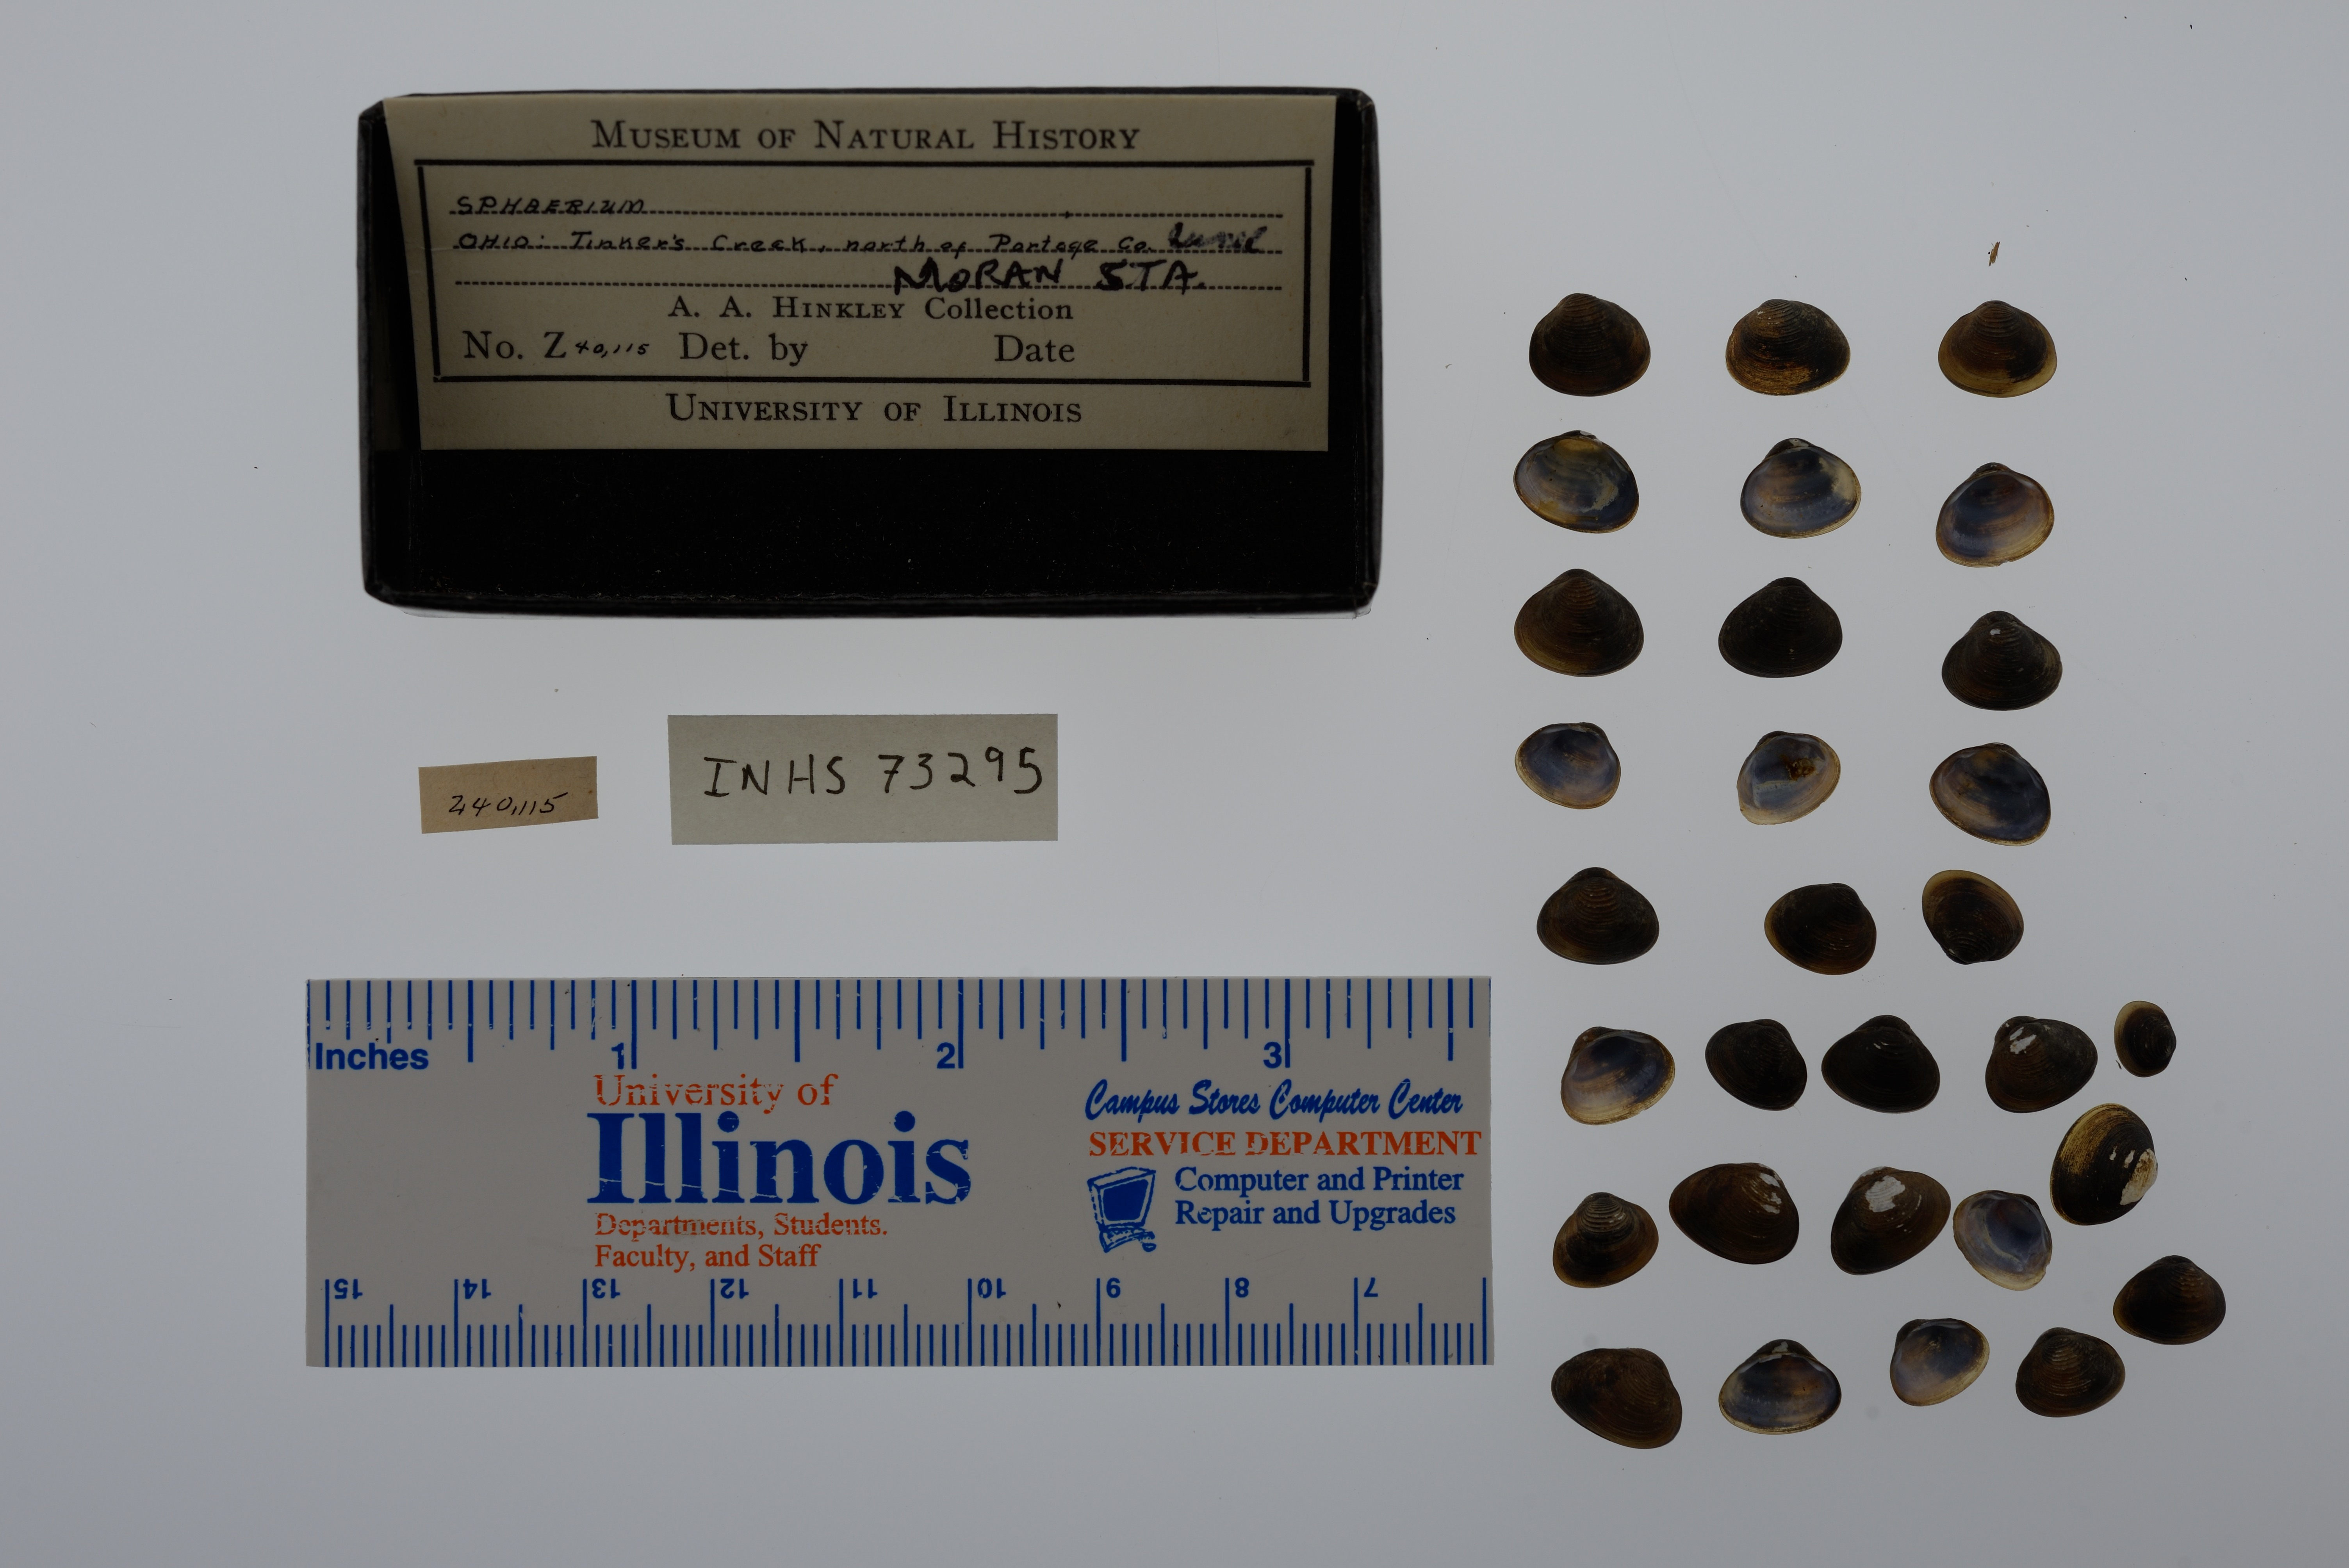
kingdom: Animalia
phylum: Mollusca
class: Bivalvia
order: Sphaeriida
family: Sphaeriidae
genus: Sphaerium
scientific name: Sphaerium
